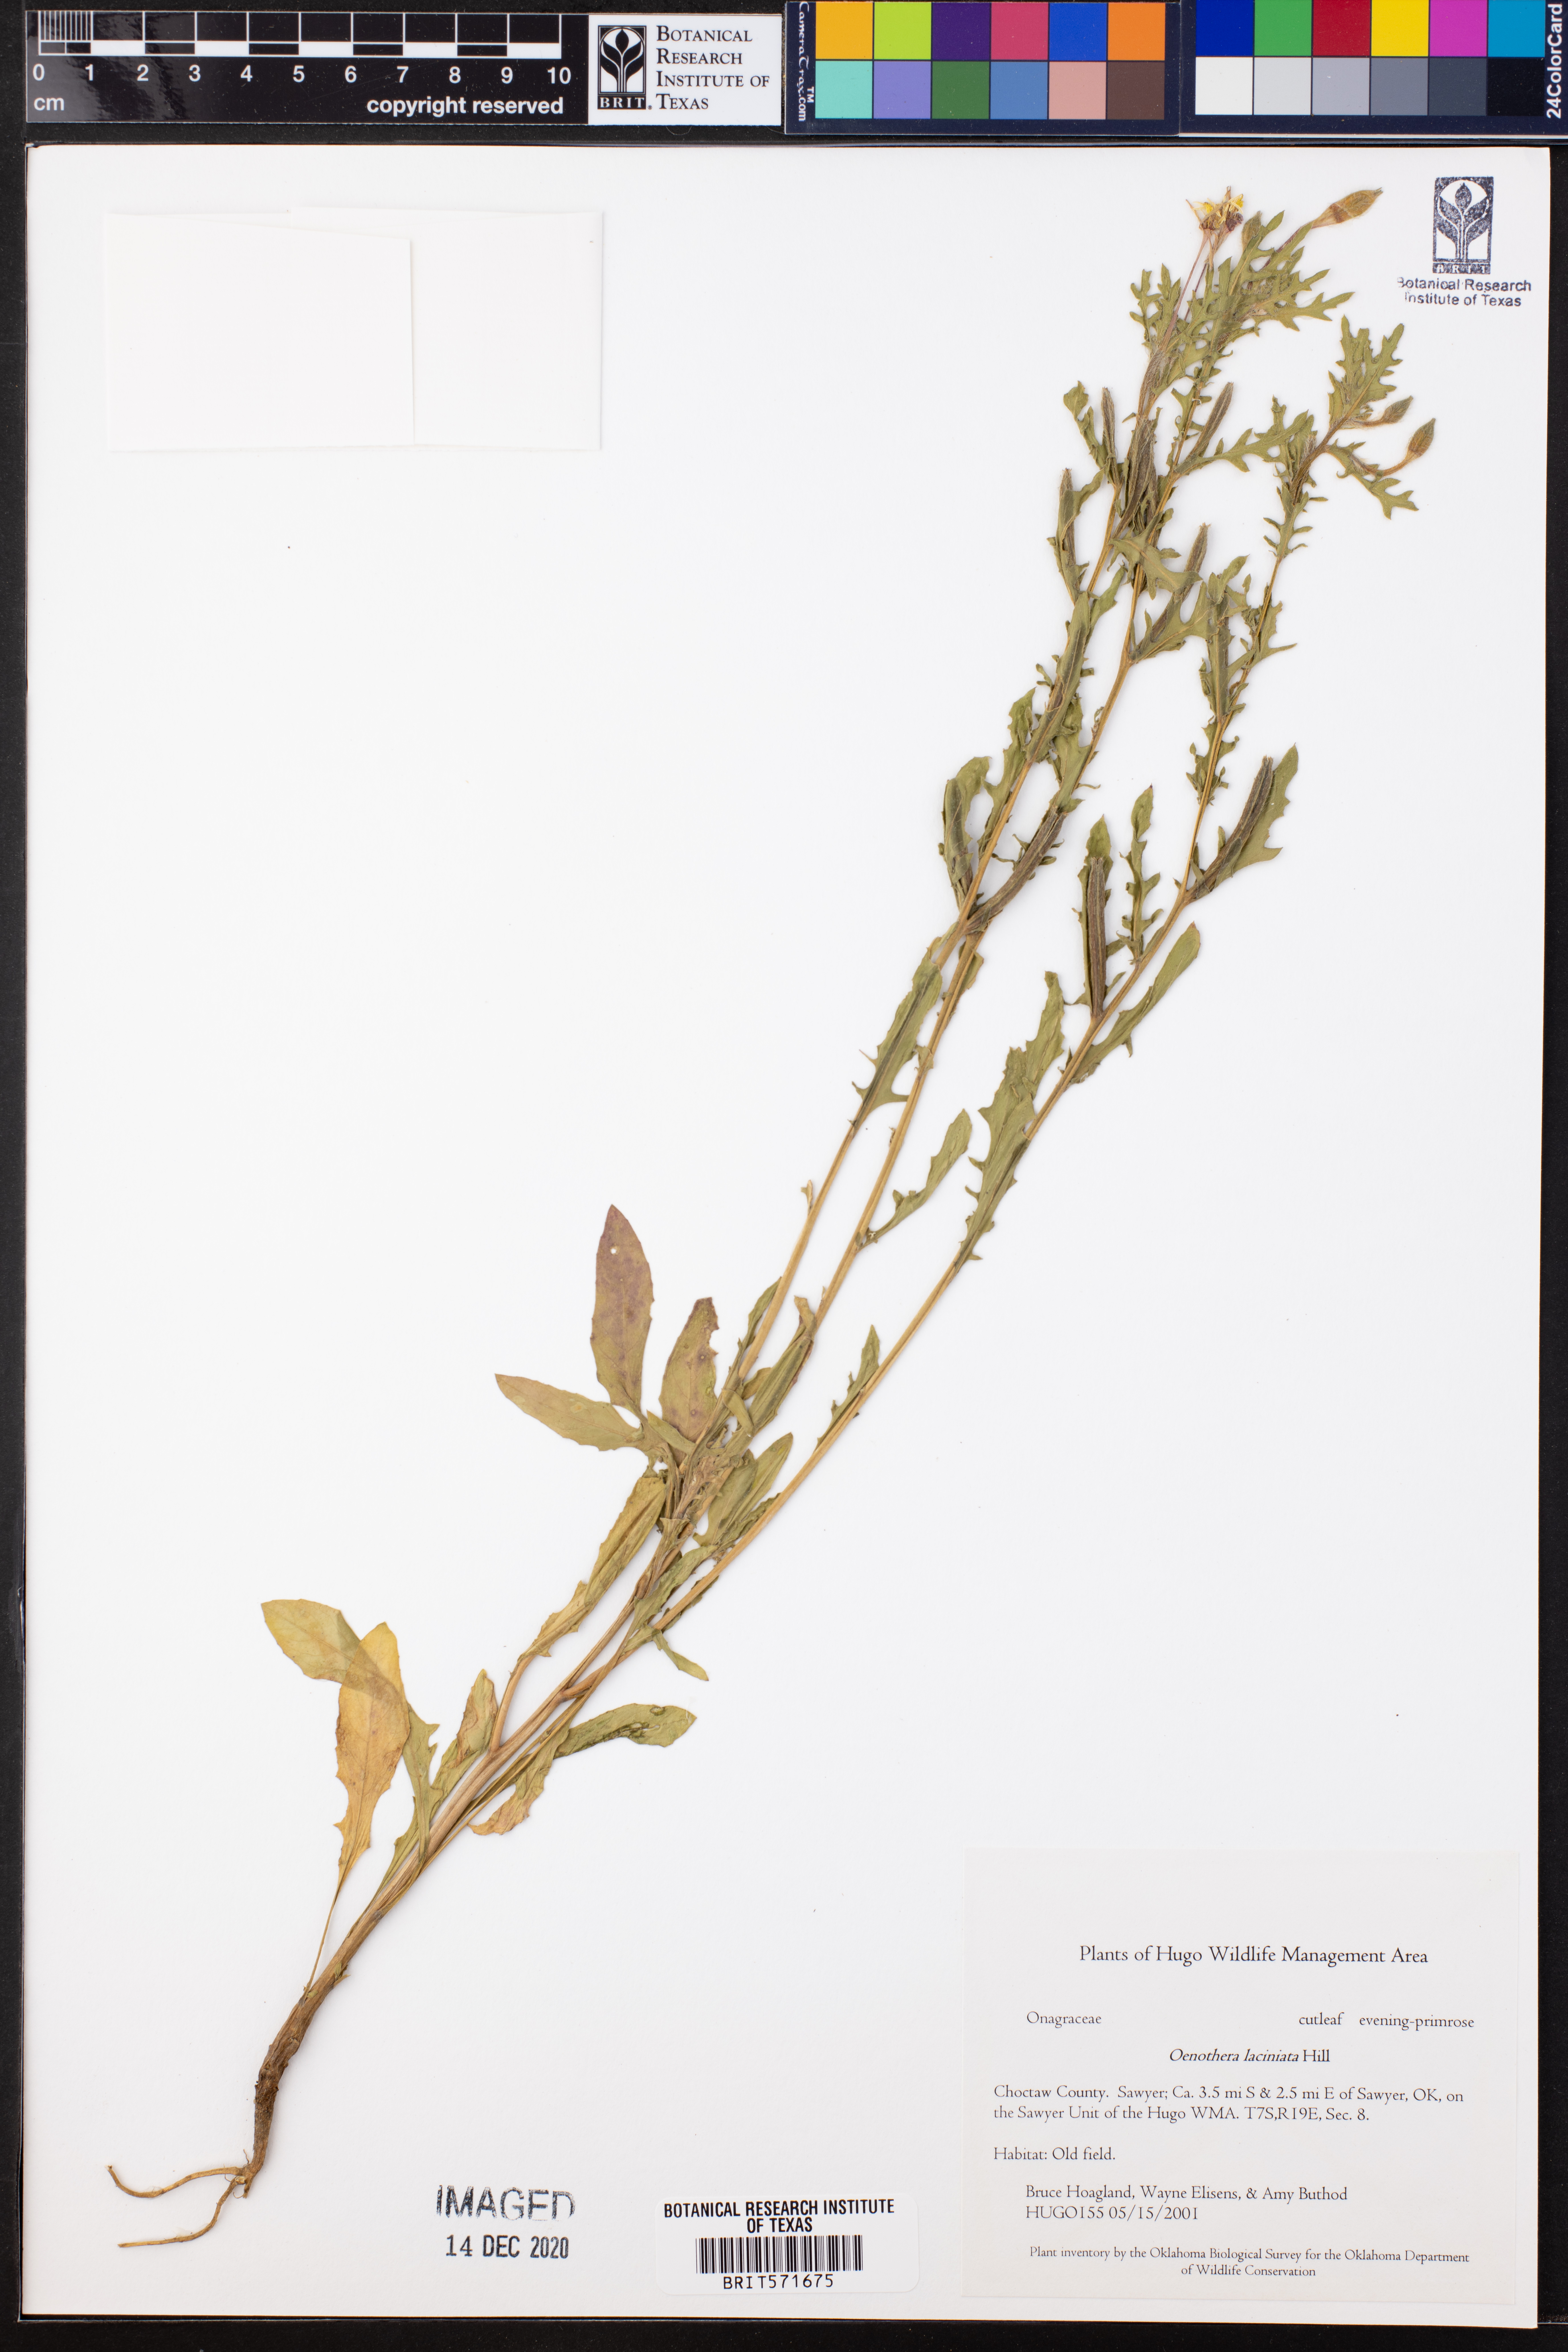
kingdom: Plantae
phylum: Tracheophyta
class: Magnoliopsida
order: Myrtales
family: Onagraceae
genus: Oenothera
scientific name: Oenothera laciniata
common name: Cut-leaved evening-primrose
